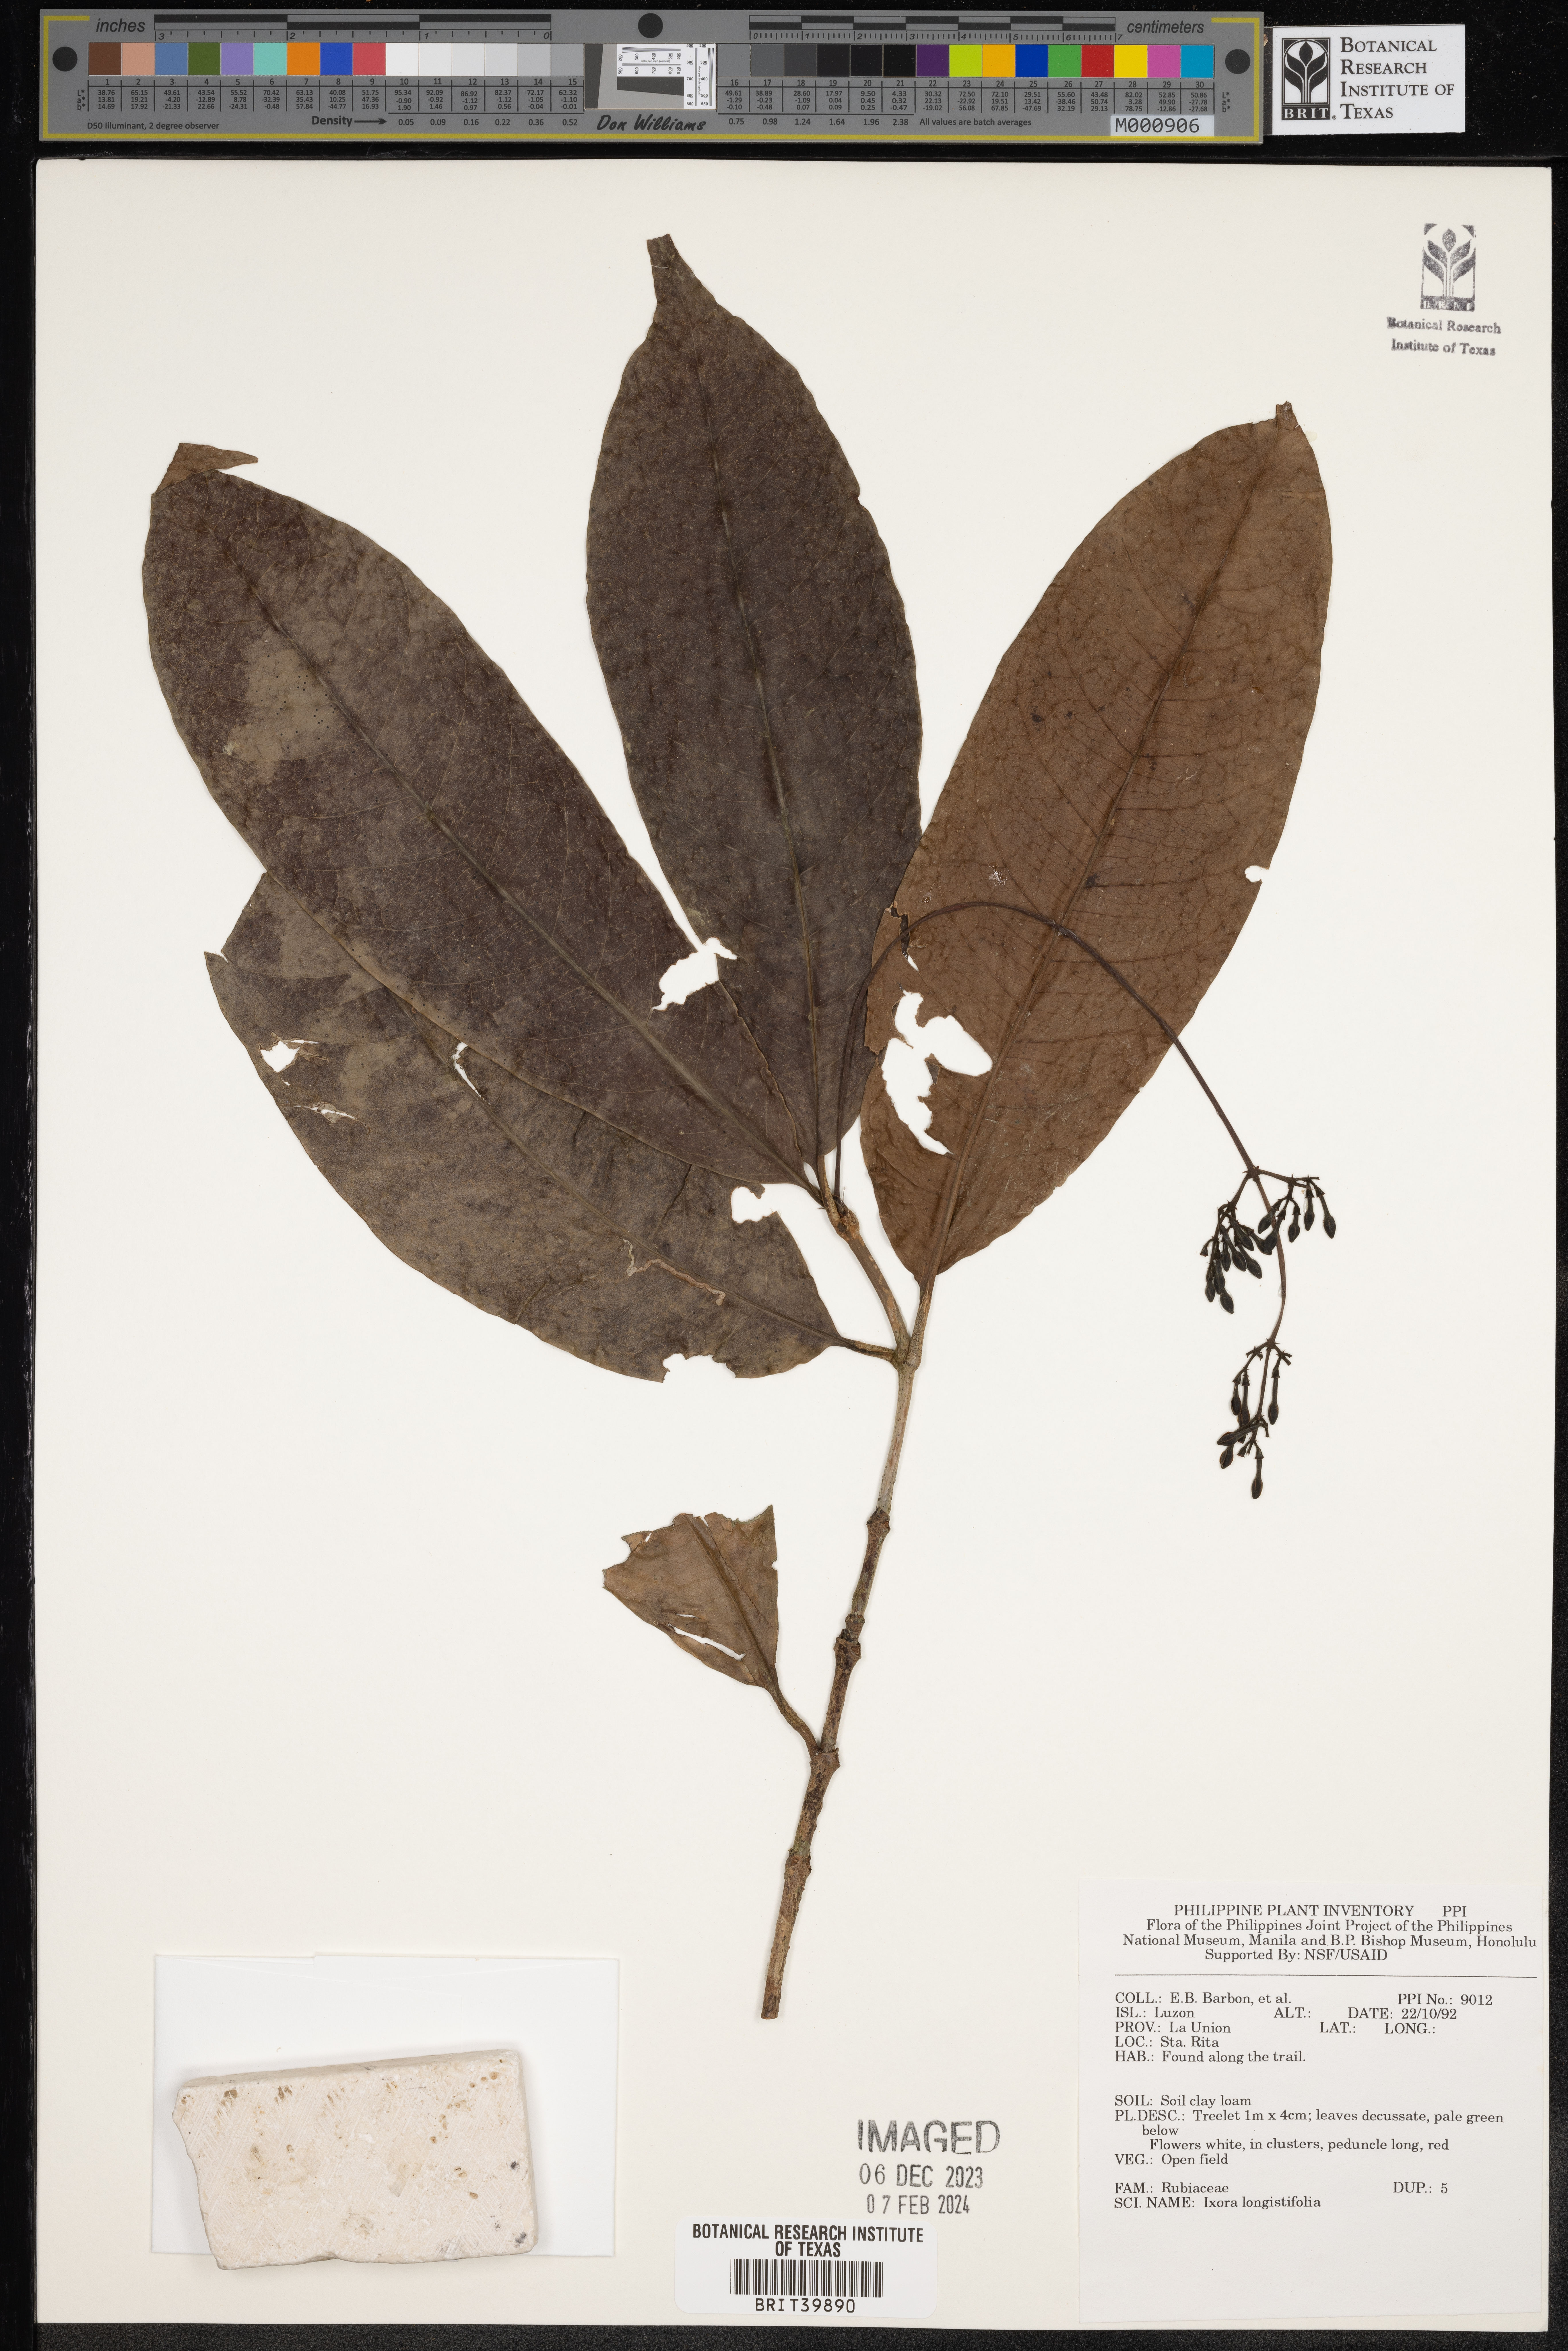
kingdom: Plantae
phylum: Tracheophyta
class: Magnoliopsida
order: Gentianales
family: Rubiaceae
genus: Ixora
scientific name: Ixora
